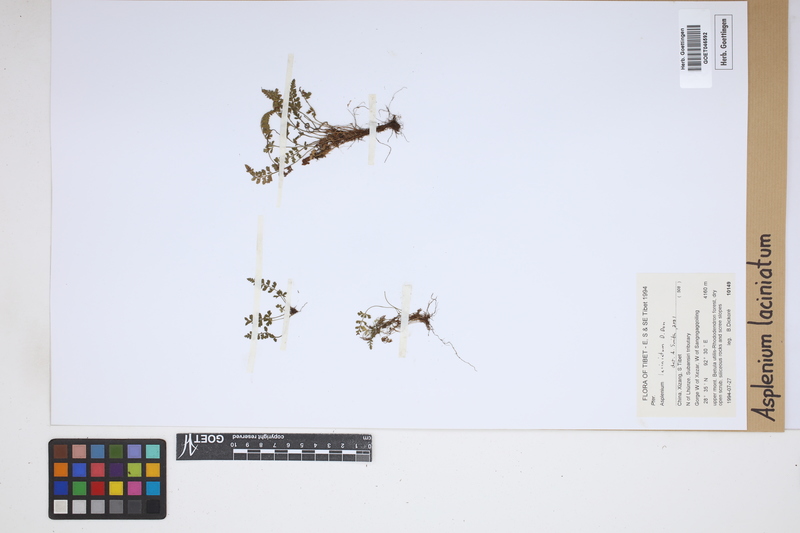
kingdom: Plantae
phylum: Tracheophyta
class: Polypodiopsida
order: Polypodiales
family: Aspleniaceae
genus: Asplenium
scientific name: Asplenium laciniatum
